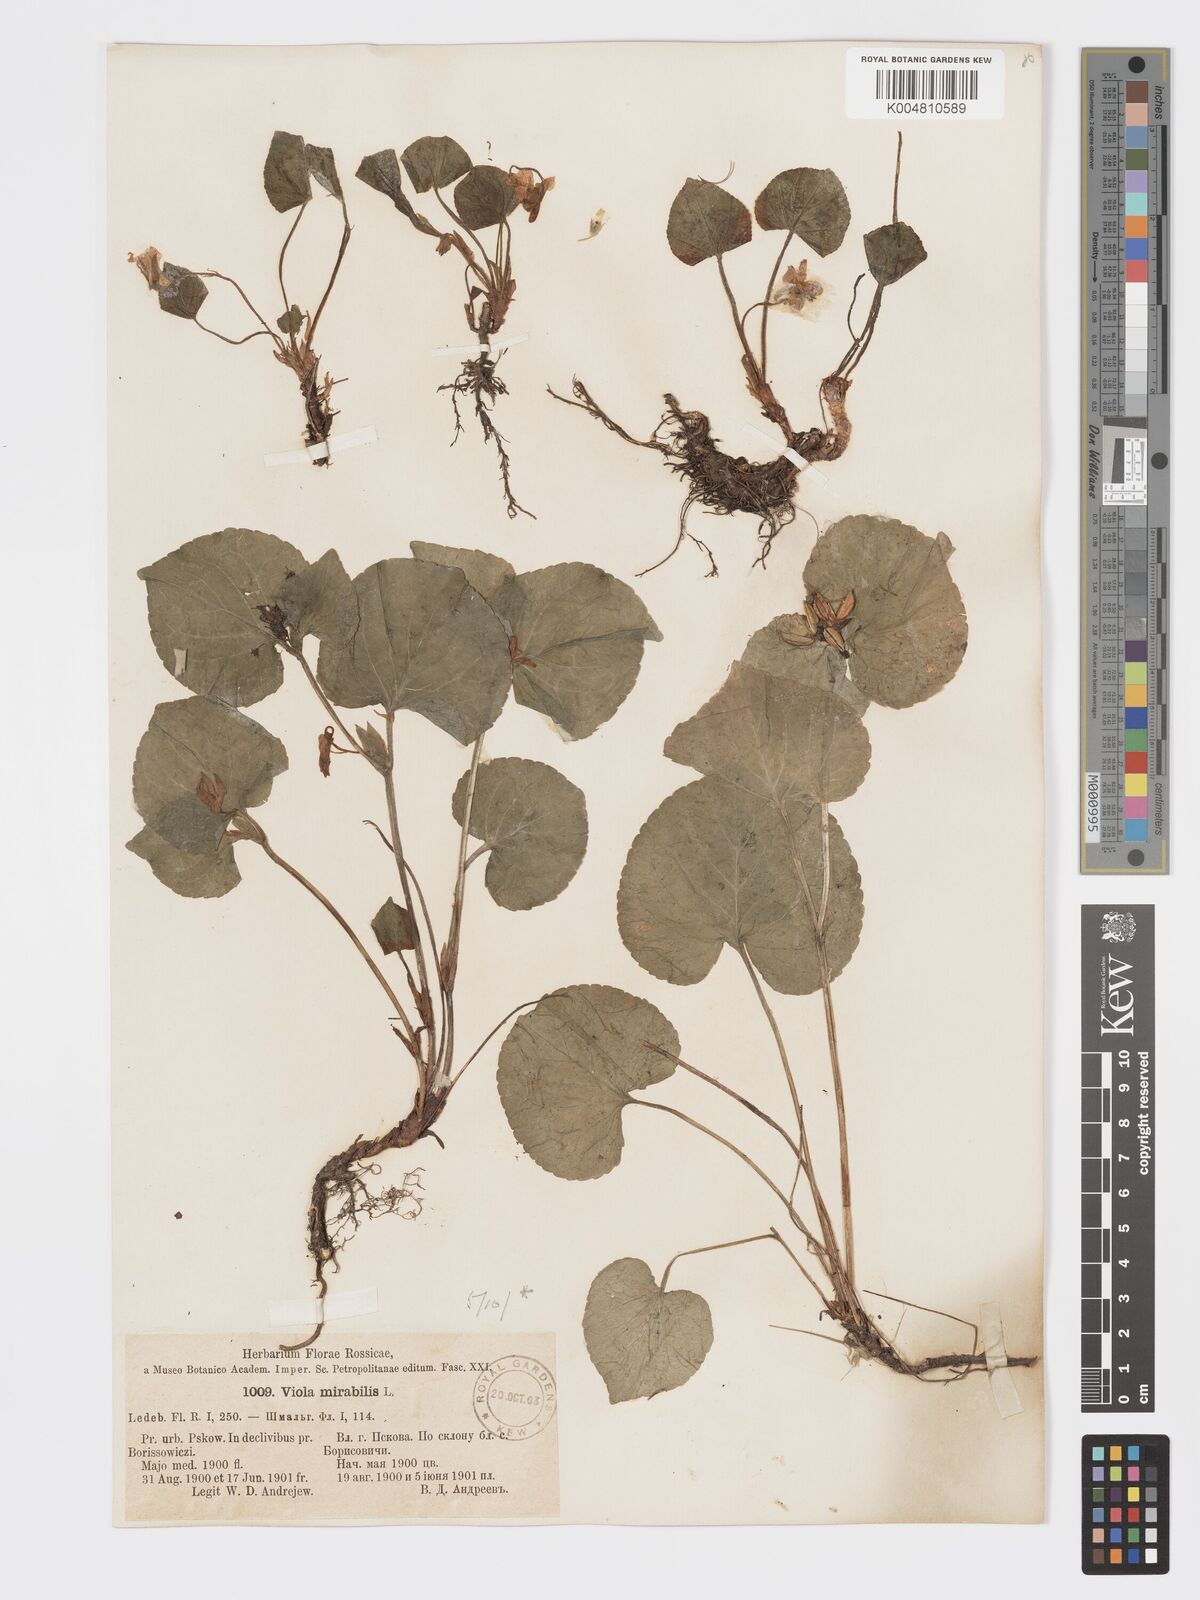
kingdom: Plantae
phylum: Tracheophyta
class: Magnoliopsida
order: Malpighiales
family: Violaceae
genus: Viola
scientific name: Viola mirabilis
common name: Wonder violet
